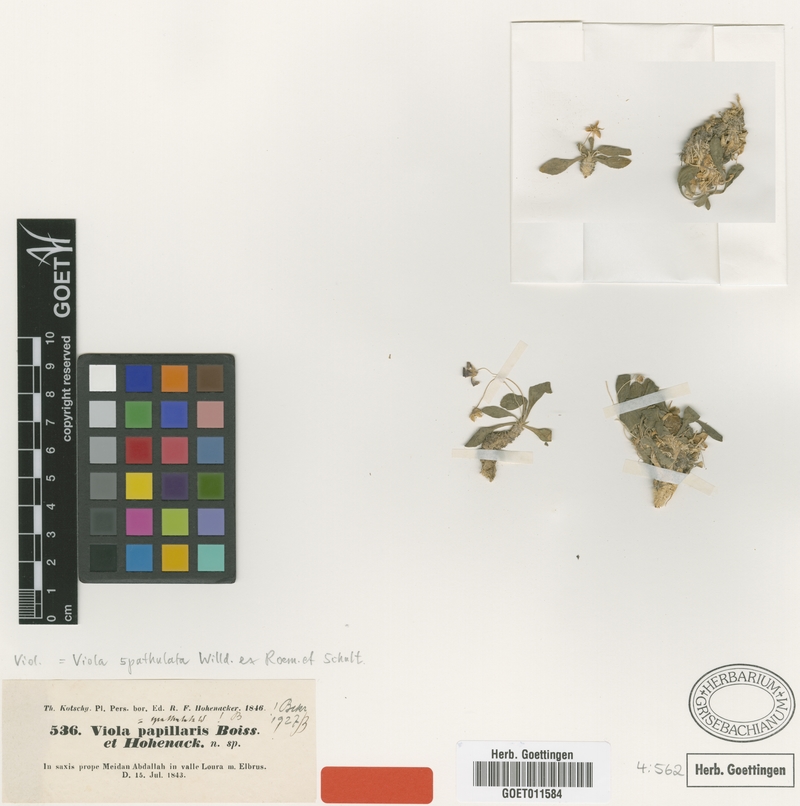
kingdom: Plantae
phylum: Tracheophyta
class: Magnoliopsida
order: Malpighiales
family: Violaceae
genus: Viola
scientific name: Viola spathulata
